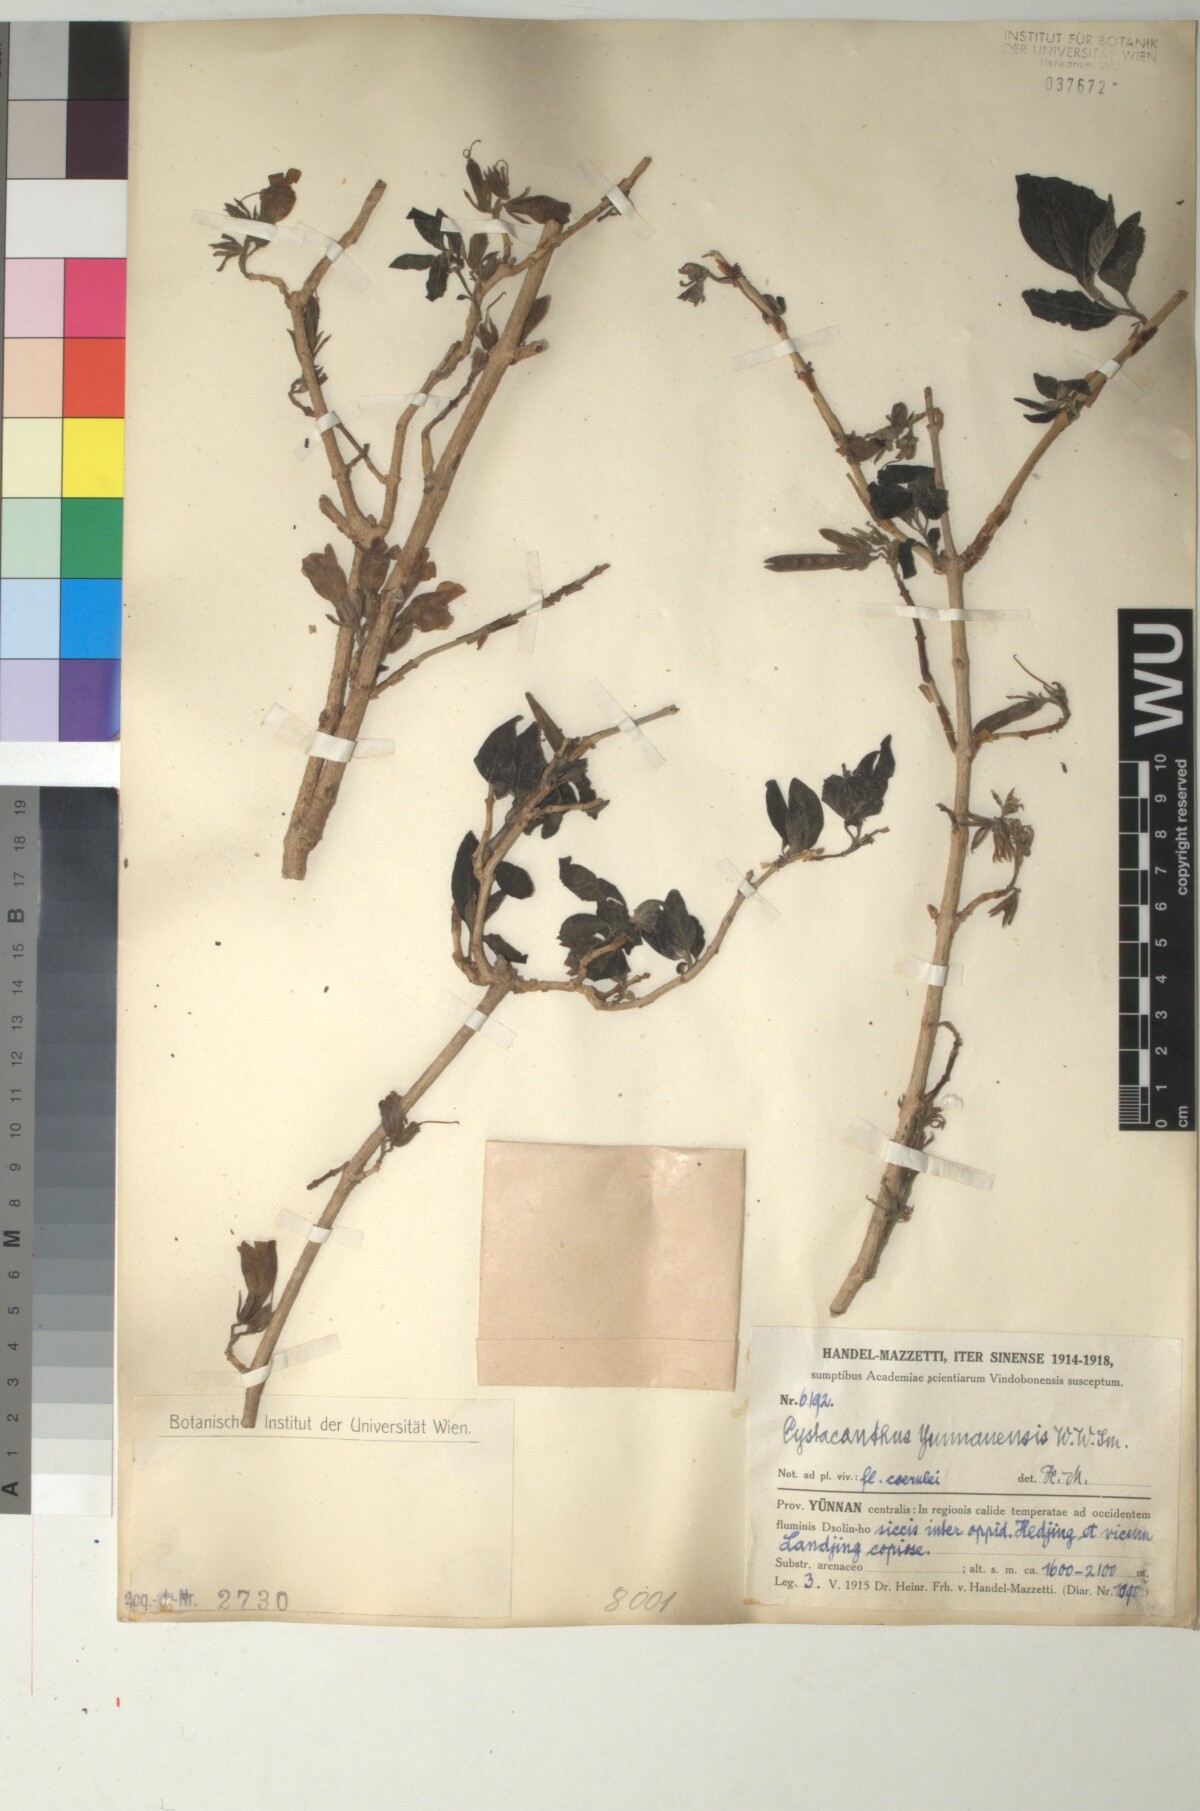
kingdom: Plantae
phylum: Tracheophyta
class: Magnoliopsida
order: Lamiales
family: Acanthaceae
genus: Phlogacanthus
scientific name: Phlogacanthus yangtsekiangensis
